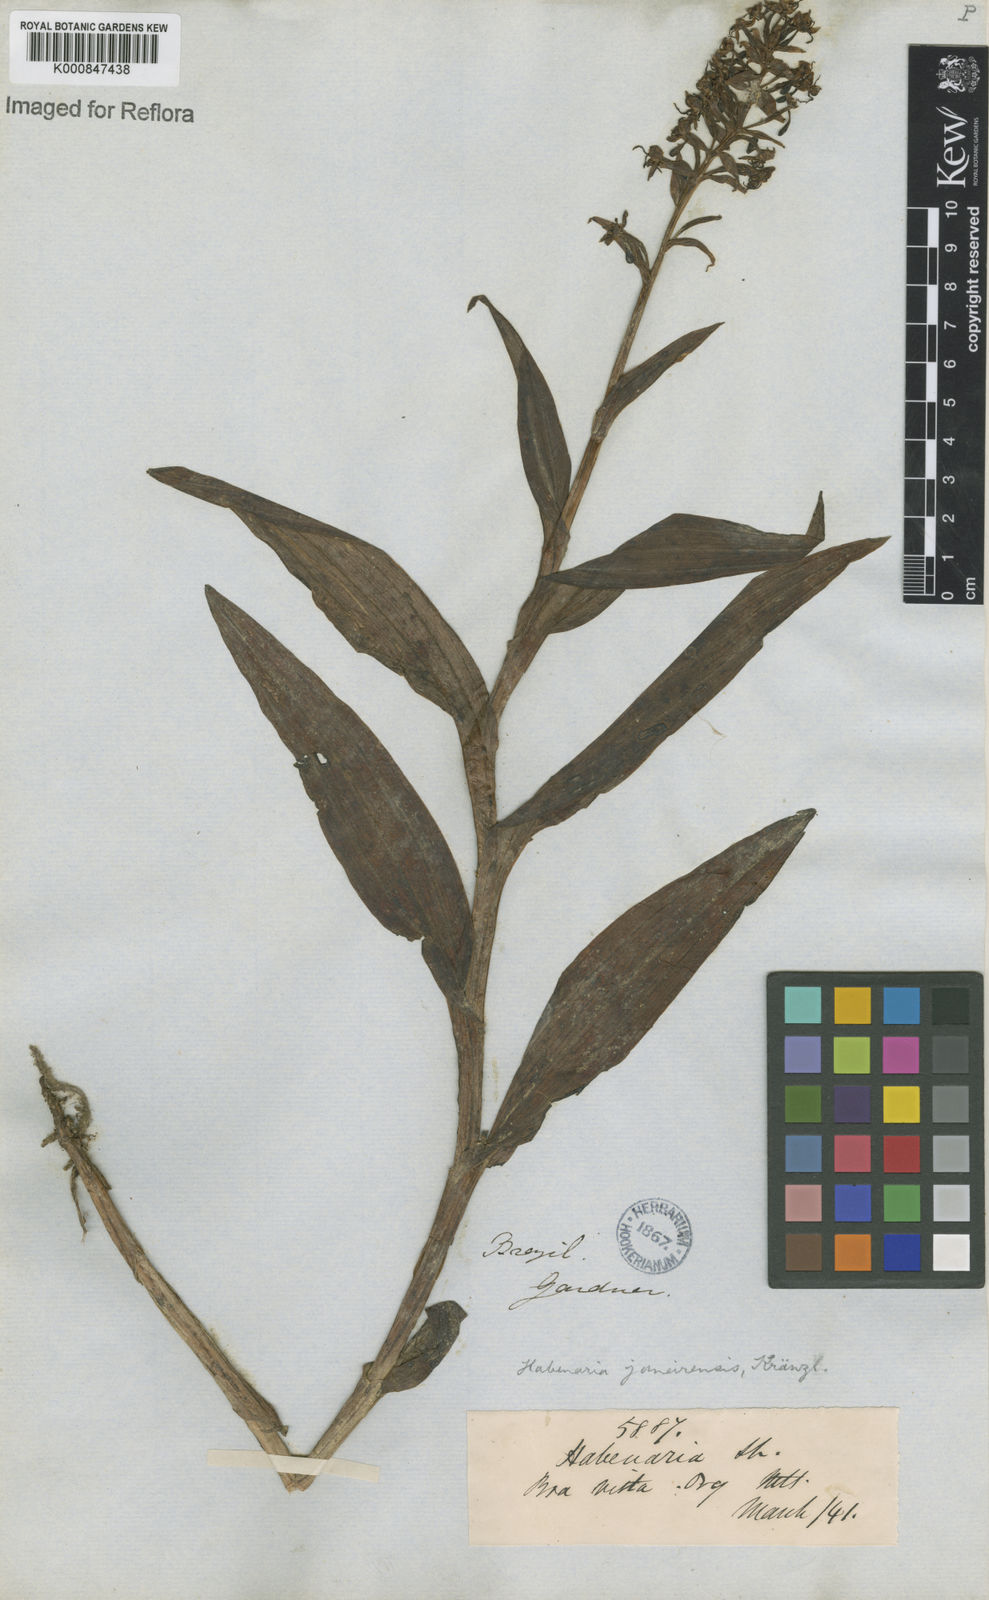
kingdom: Plantae
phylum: Tracheophyta
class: Liliopsida
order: Asparagales
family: Orchidaceae
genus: Habenaria
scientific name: Habenaria paranaensis
